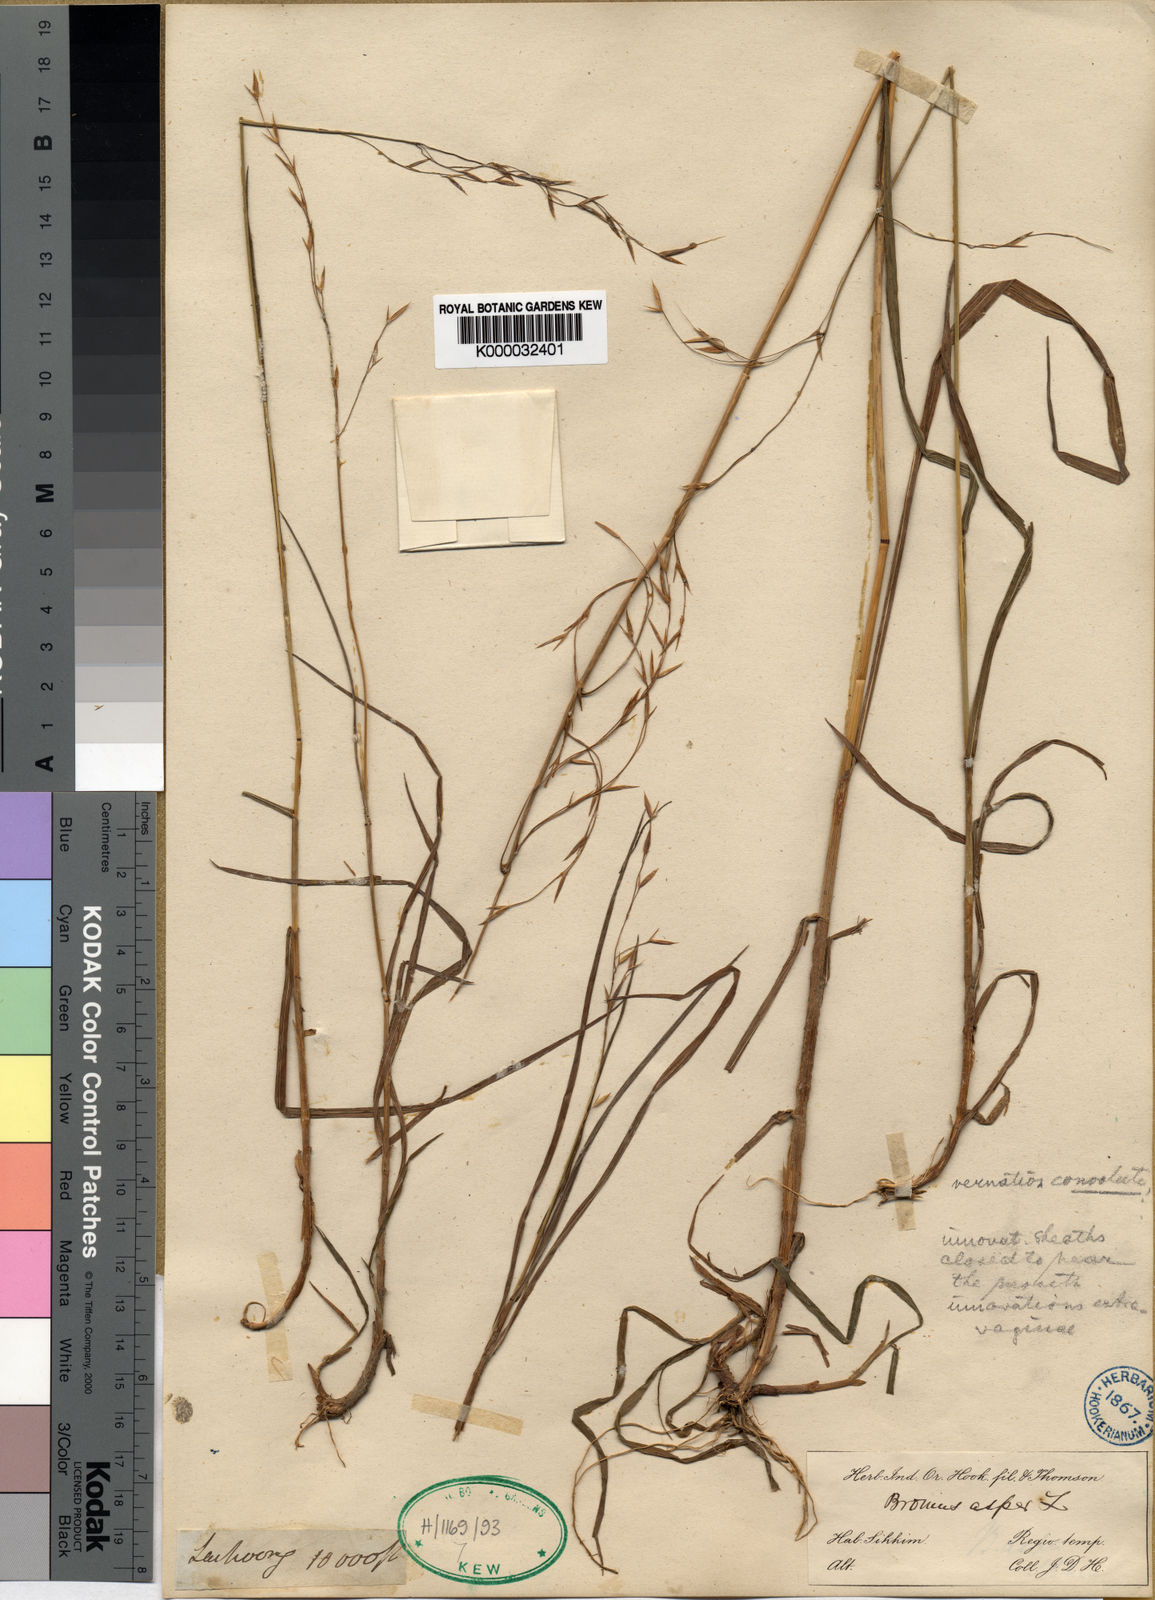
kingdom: Plantae
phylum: Tracheophyta
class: Liliopsida
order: Poales
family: Poaceae
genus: Bromus
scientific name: Bromus himalaicus
